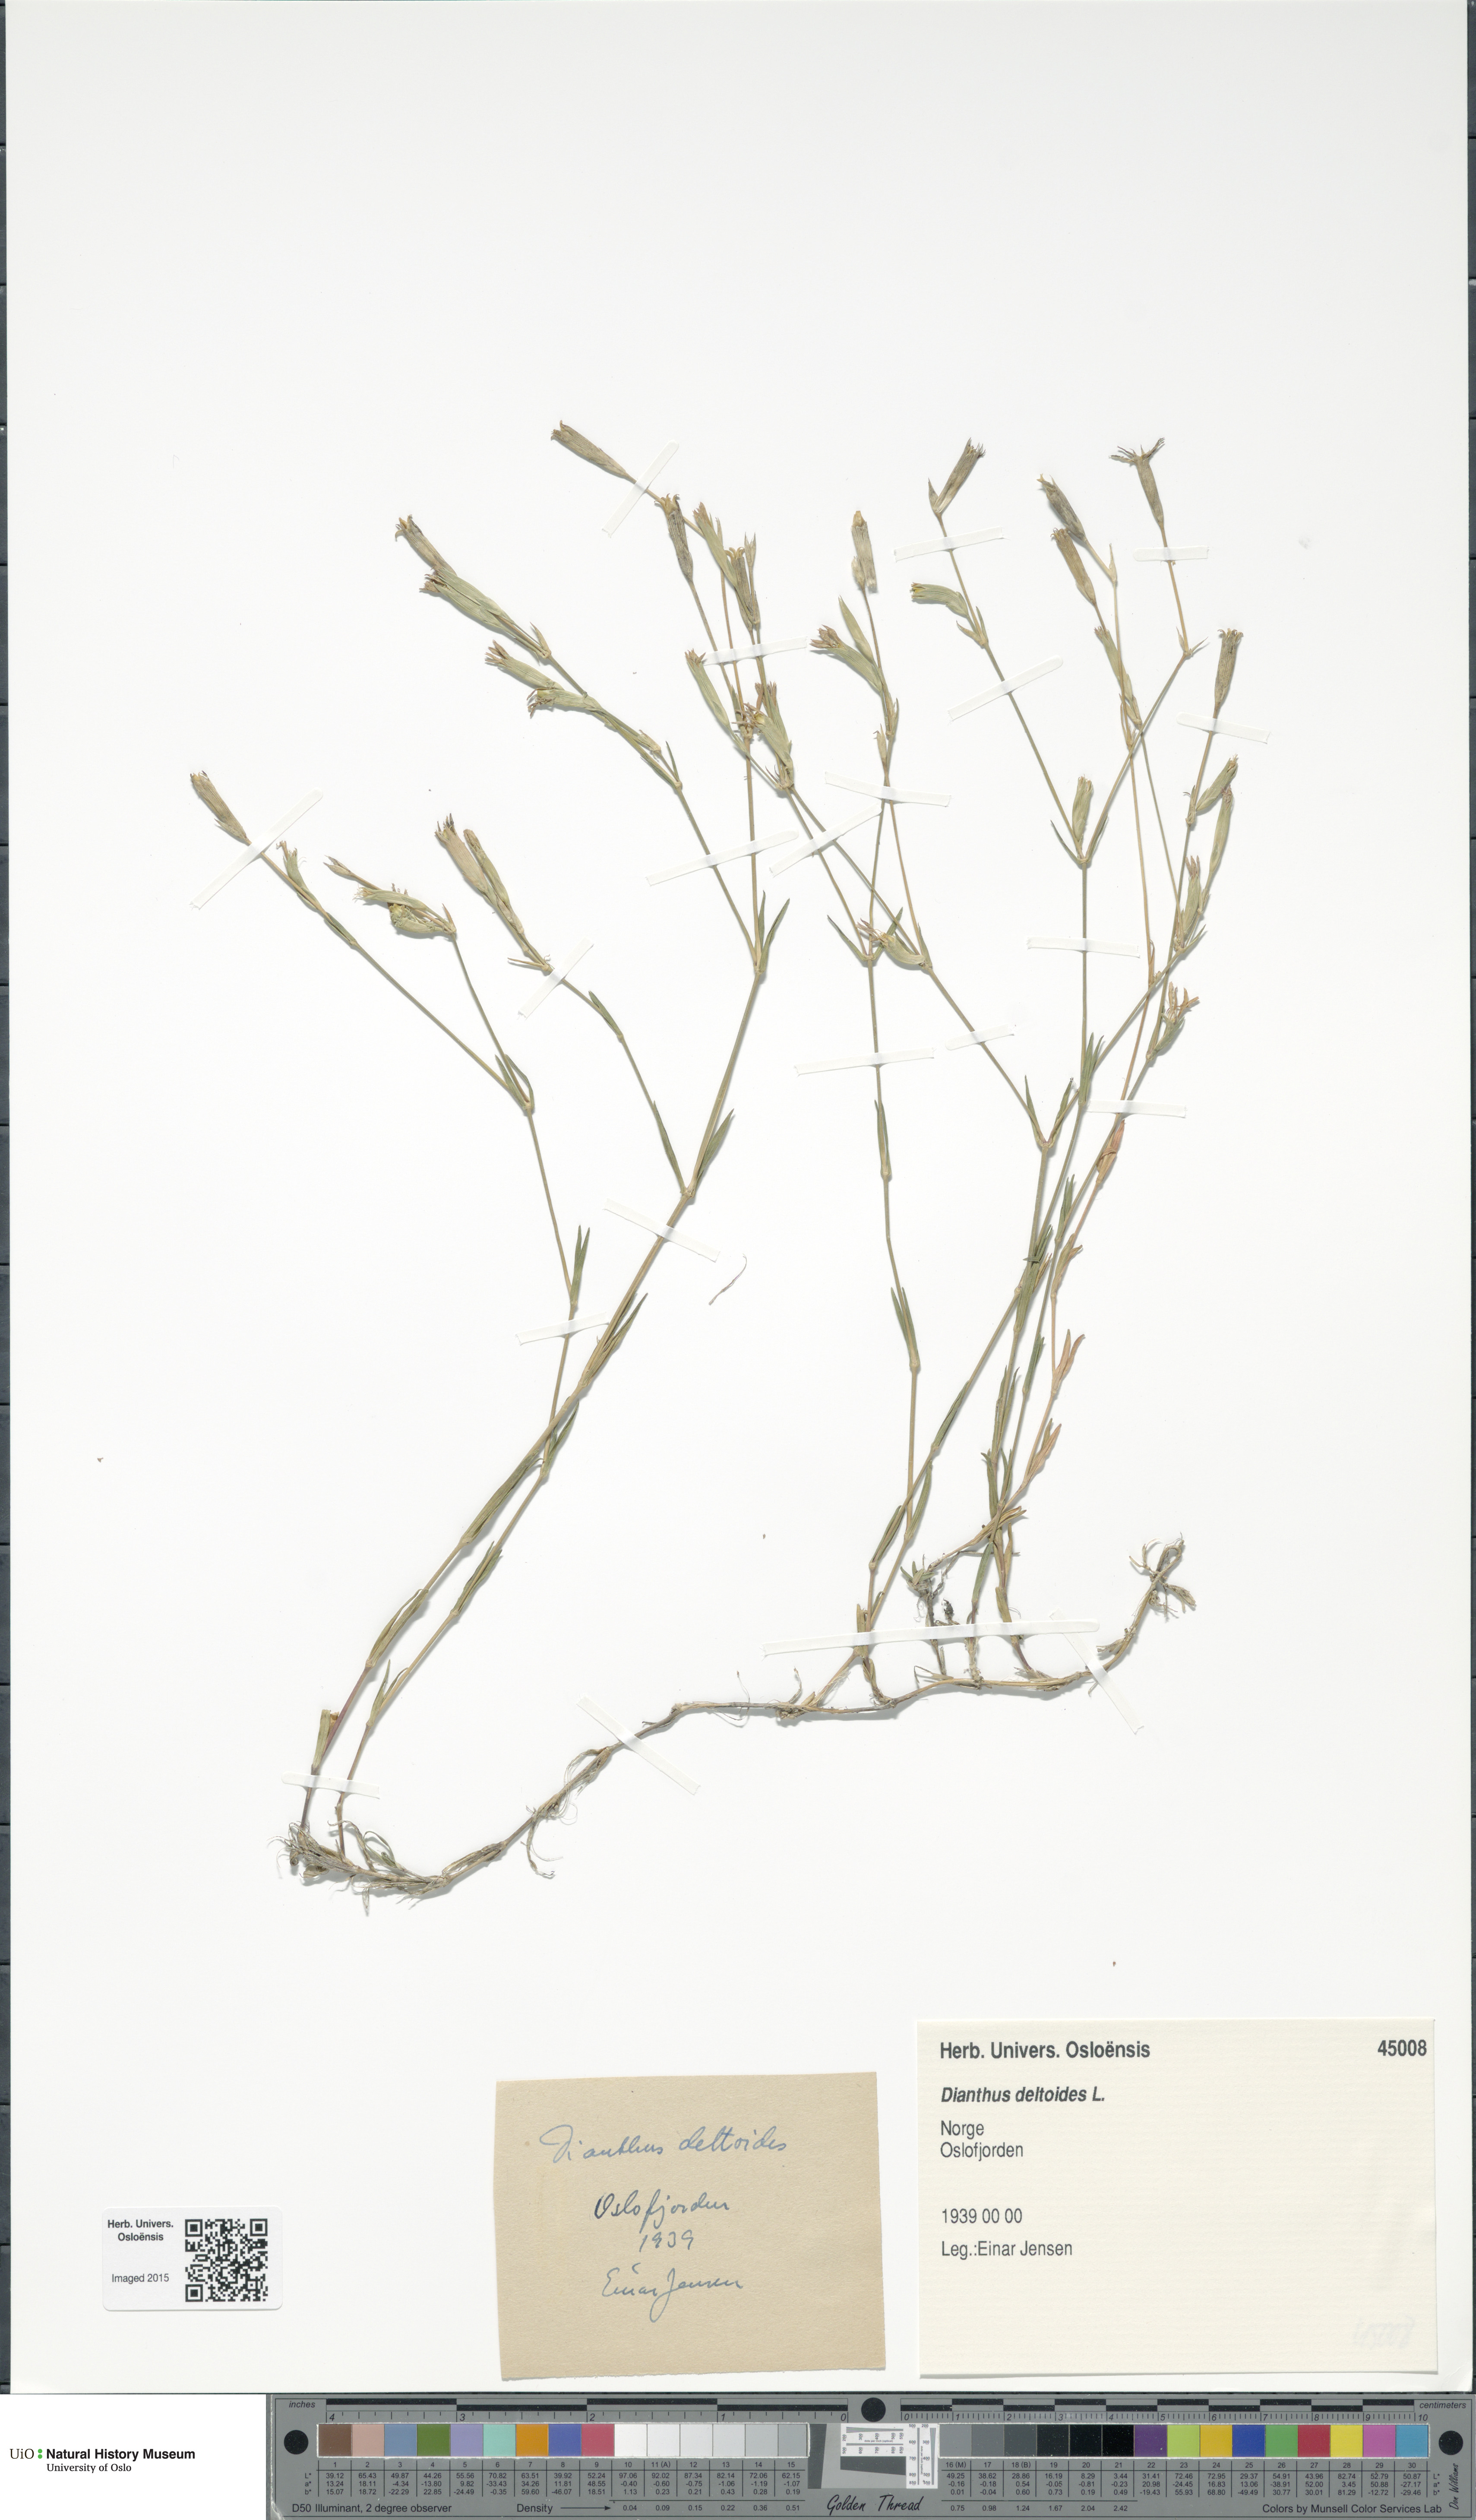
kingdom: Plantae
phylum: Tracheophyta
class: Magnoliopsida
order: Caryophyllales
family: Caryophyllaceae
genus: Dianthus
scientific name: Dianthus deltoides
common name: Maiden pink
